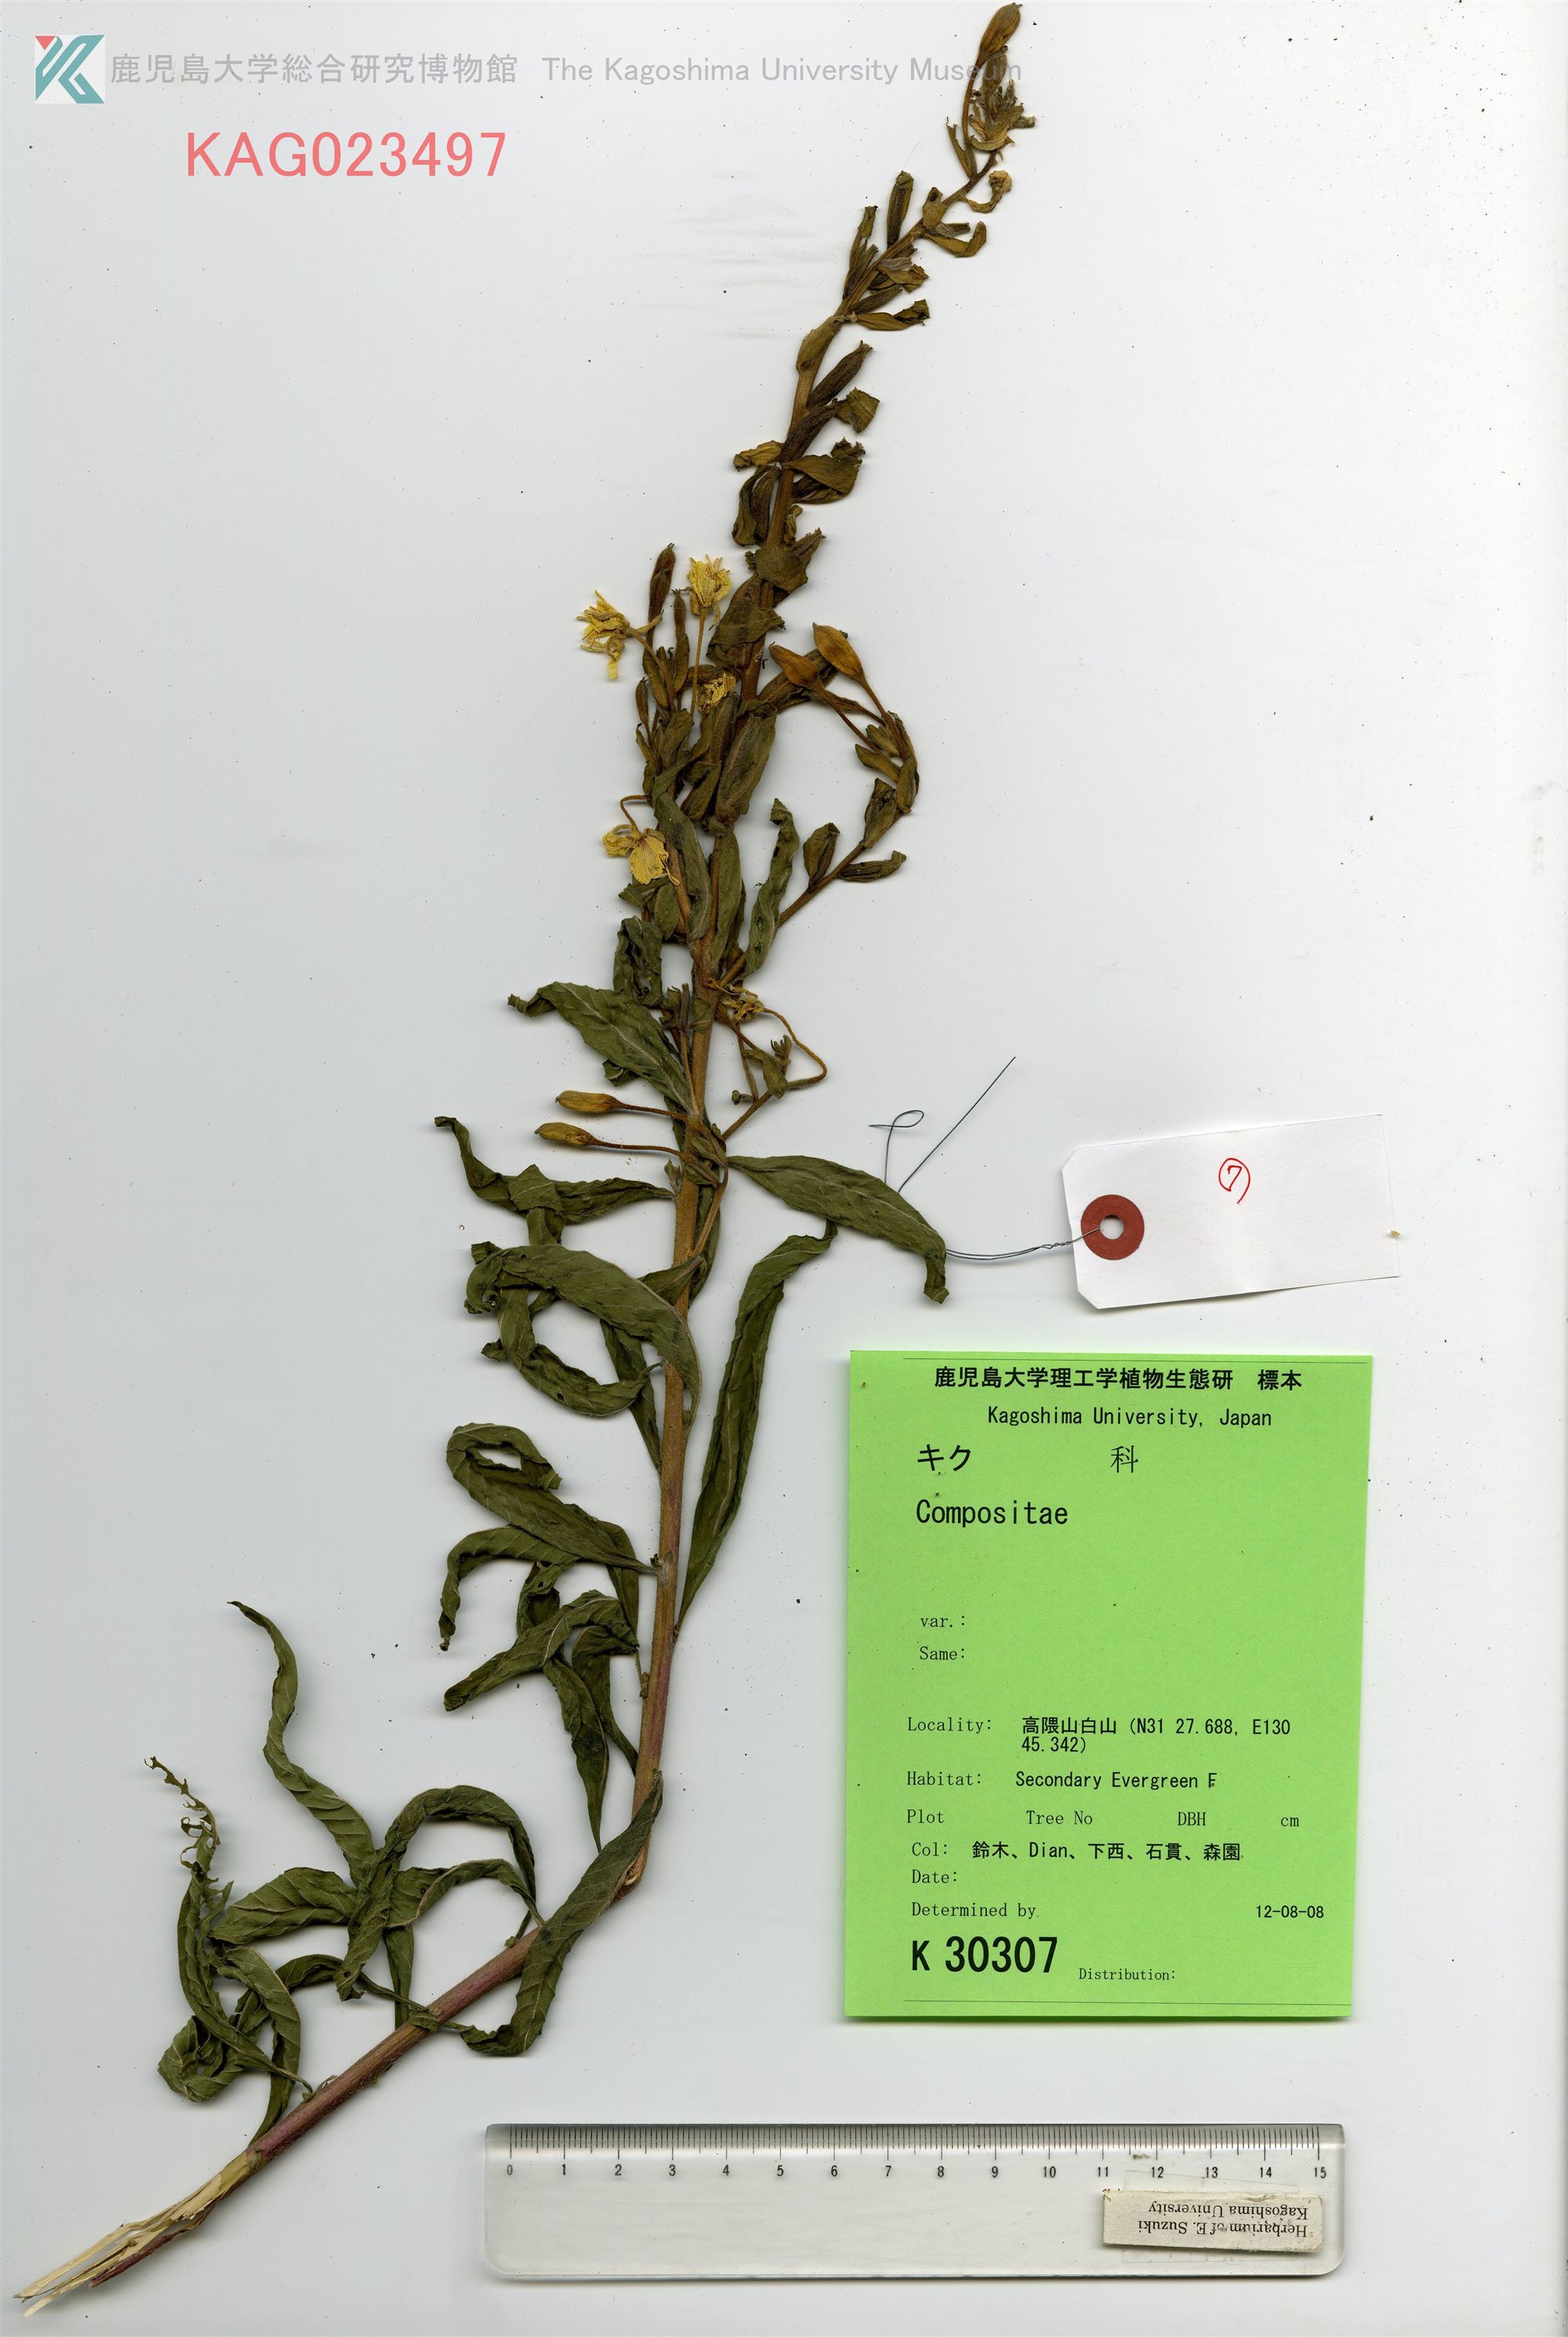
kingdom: Plantae
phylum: Tracheophyta
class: Magnoliopsida
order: Myrtales
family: Onagraceae
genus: Oenothera
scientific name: Oenothera biennis
